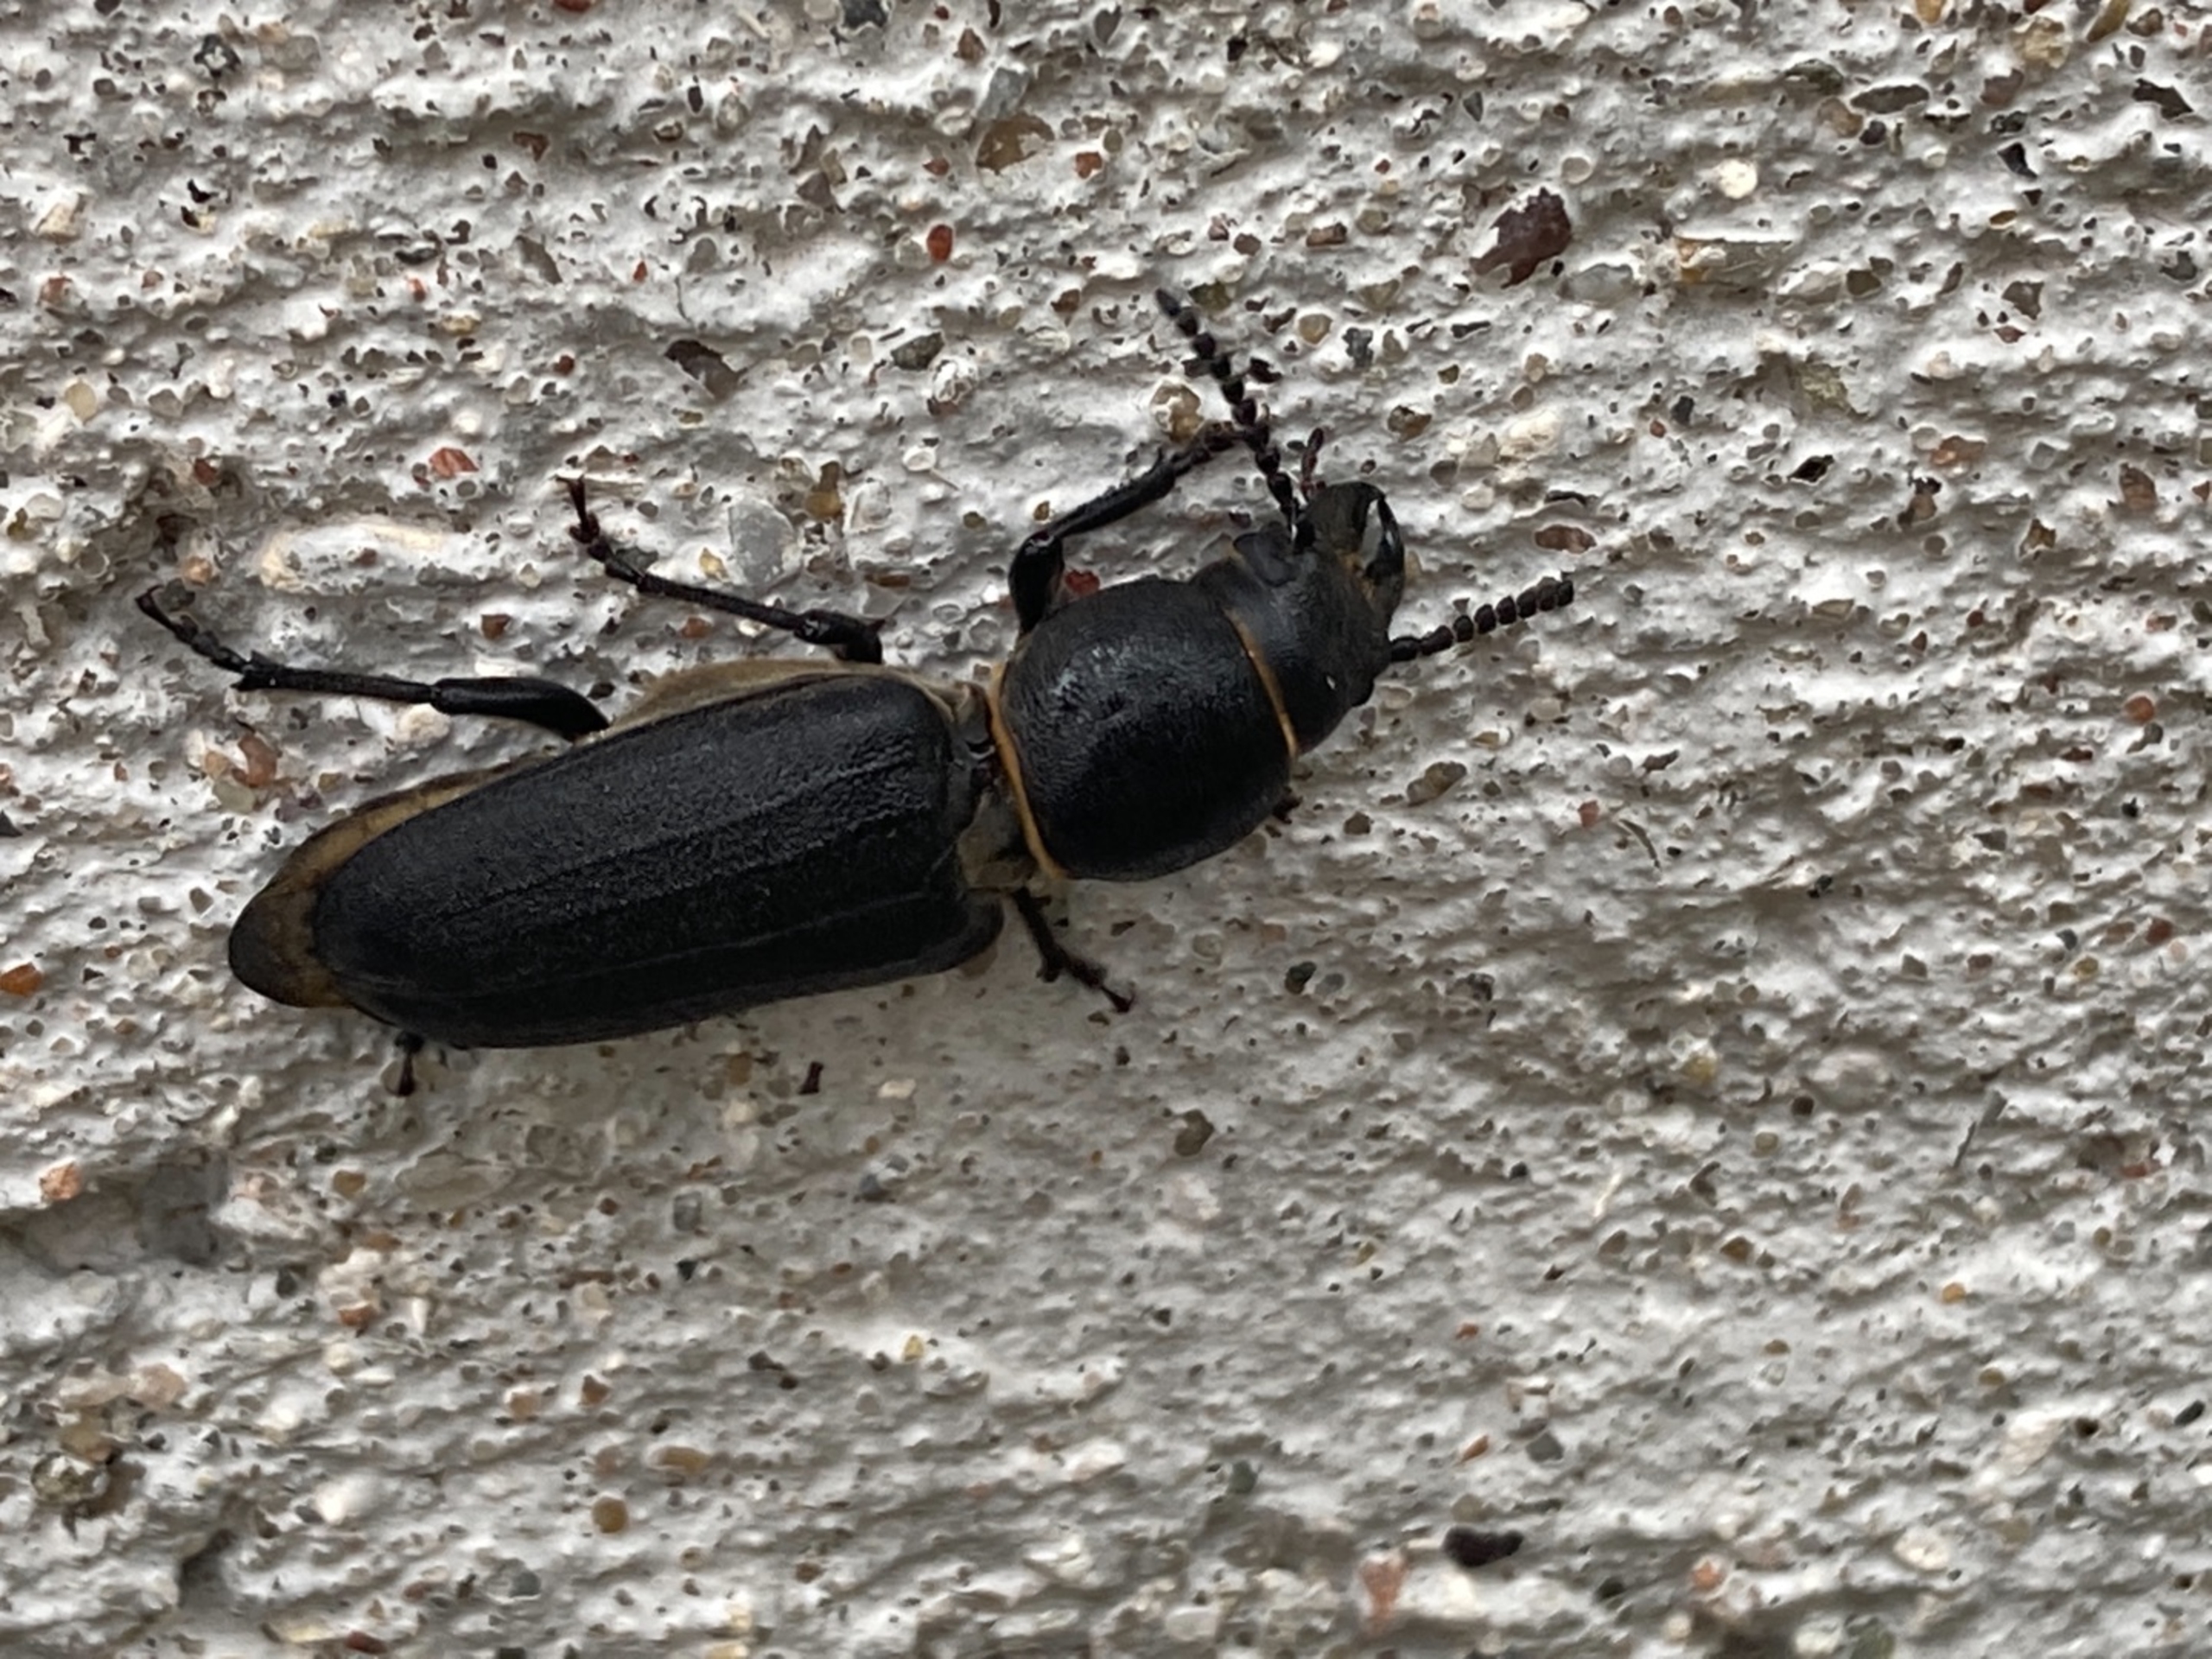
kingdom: Animalia
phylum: Arthropoda
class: Insecta
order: Coleoptera
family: Cerambycidae
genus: Spondylis
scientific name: Spondylis buprestoides
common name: Valsebuk
